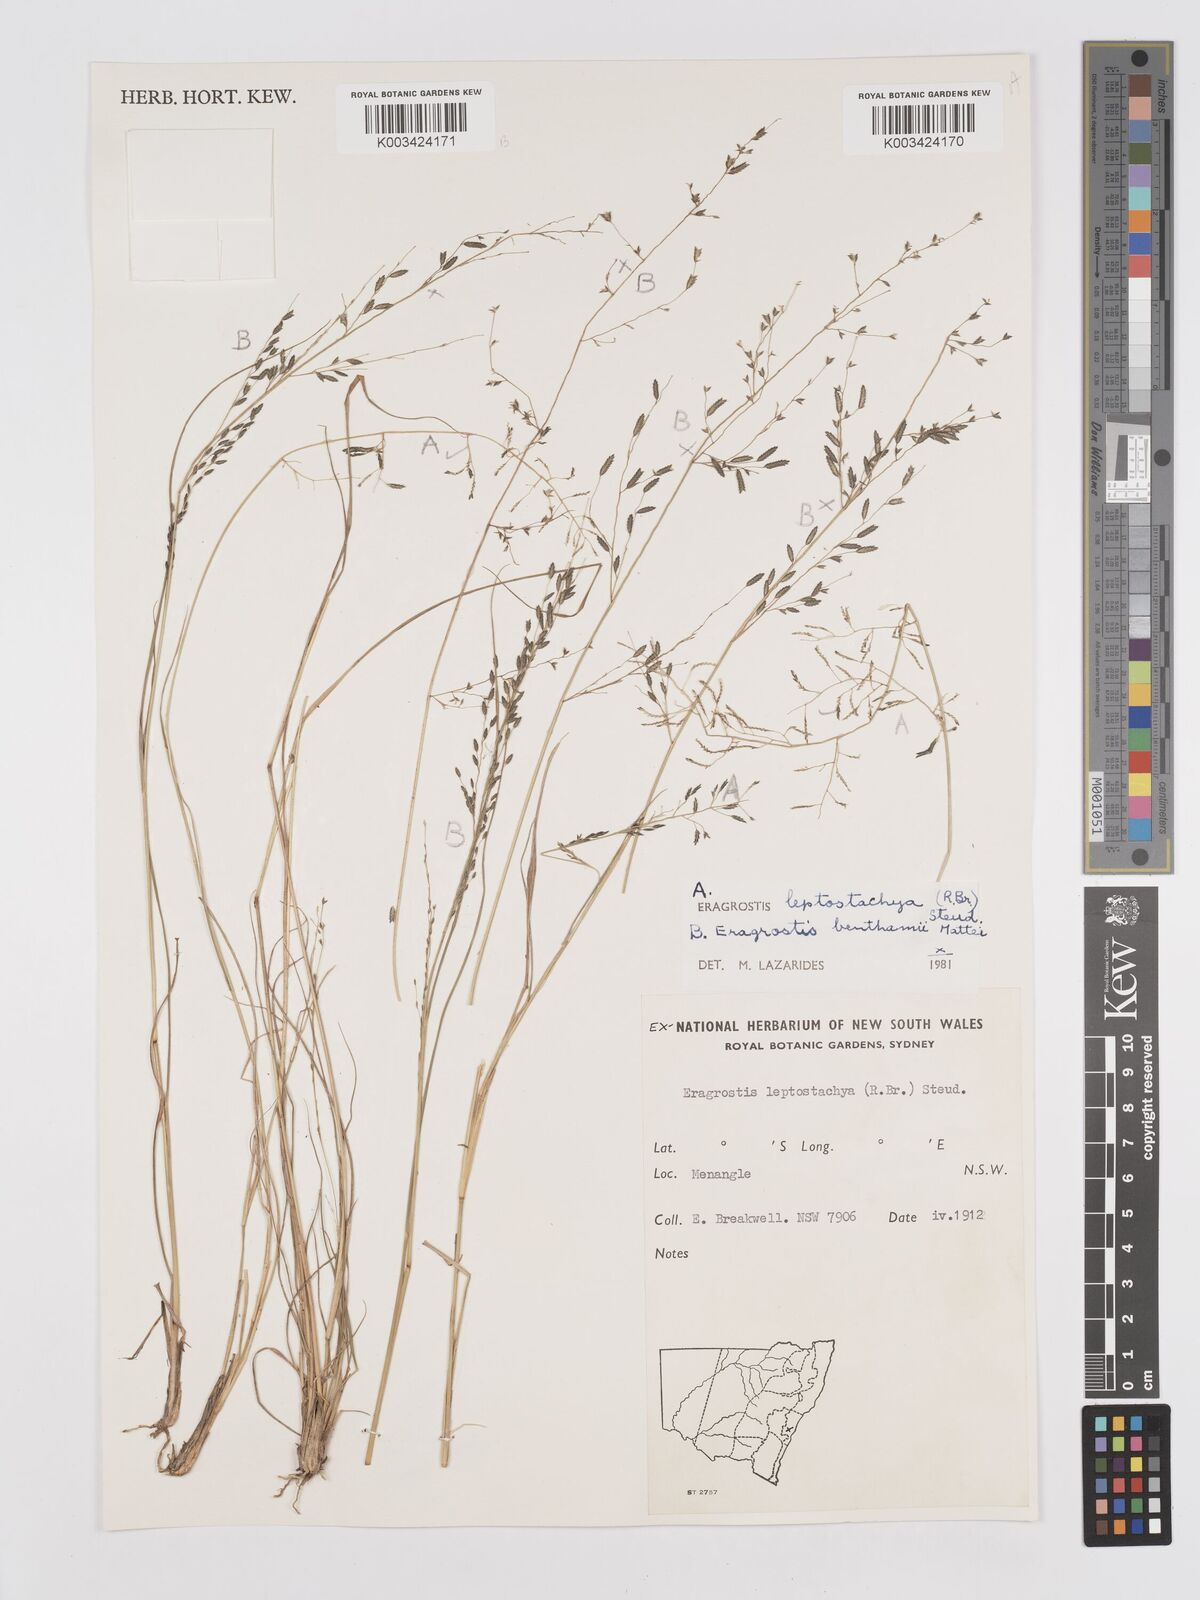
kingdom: Plantae
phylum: Tracheophyta
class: Liliopsida
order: Poales
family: Poaceae
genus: Eragrostis
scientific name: Eragrostis brownii
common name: Lovegrass
